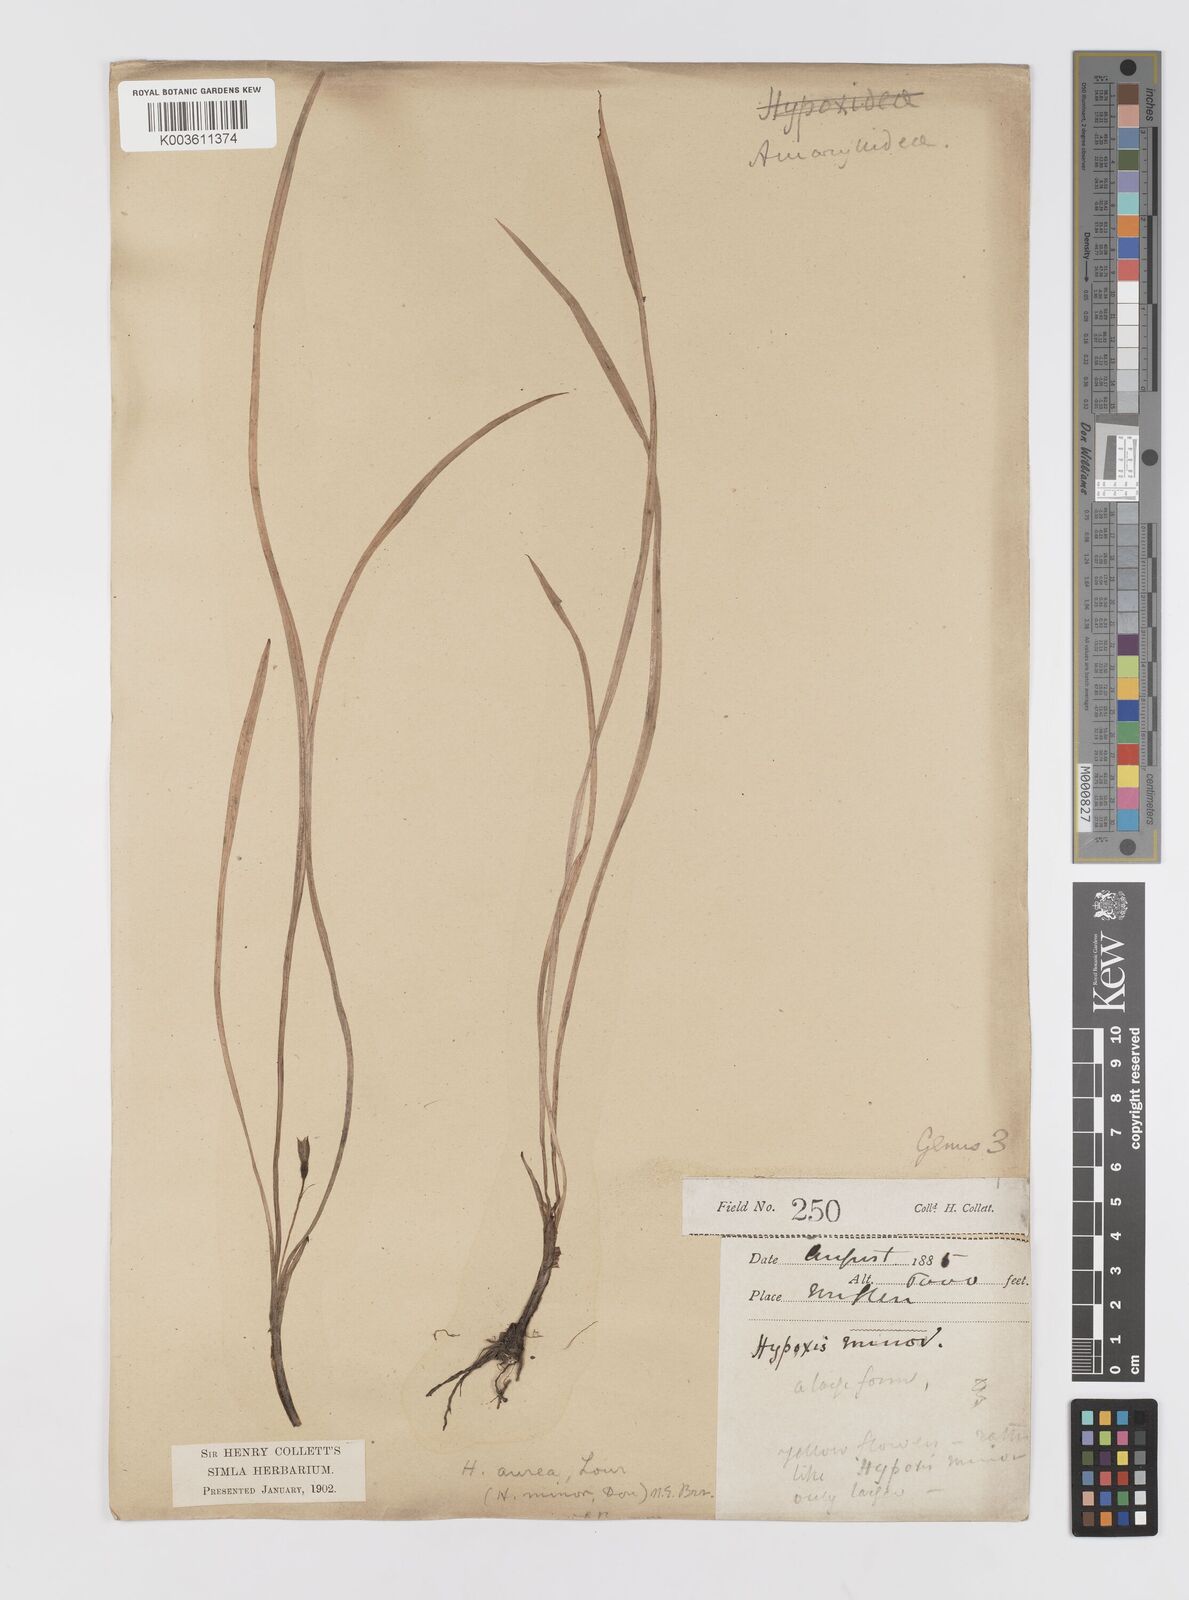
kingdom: Plantae
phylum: Tracheophyta
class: Liliopsida
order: Asparagales
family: Hypoxidaceae
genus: Hypoxis
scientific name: Hypoxis aurea
